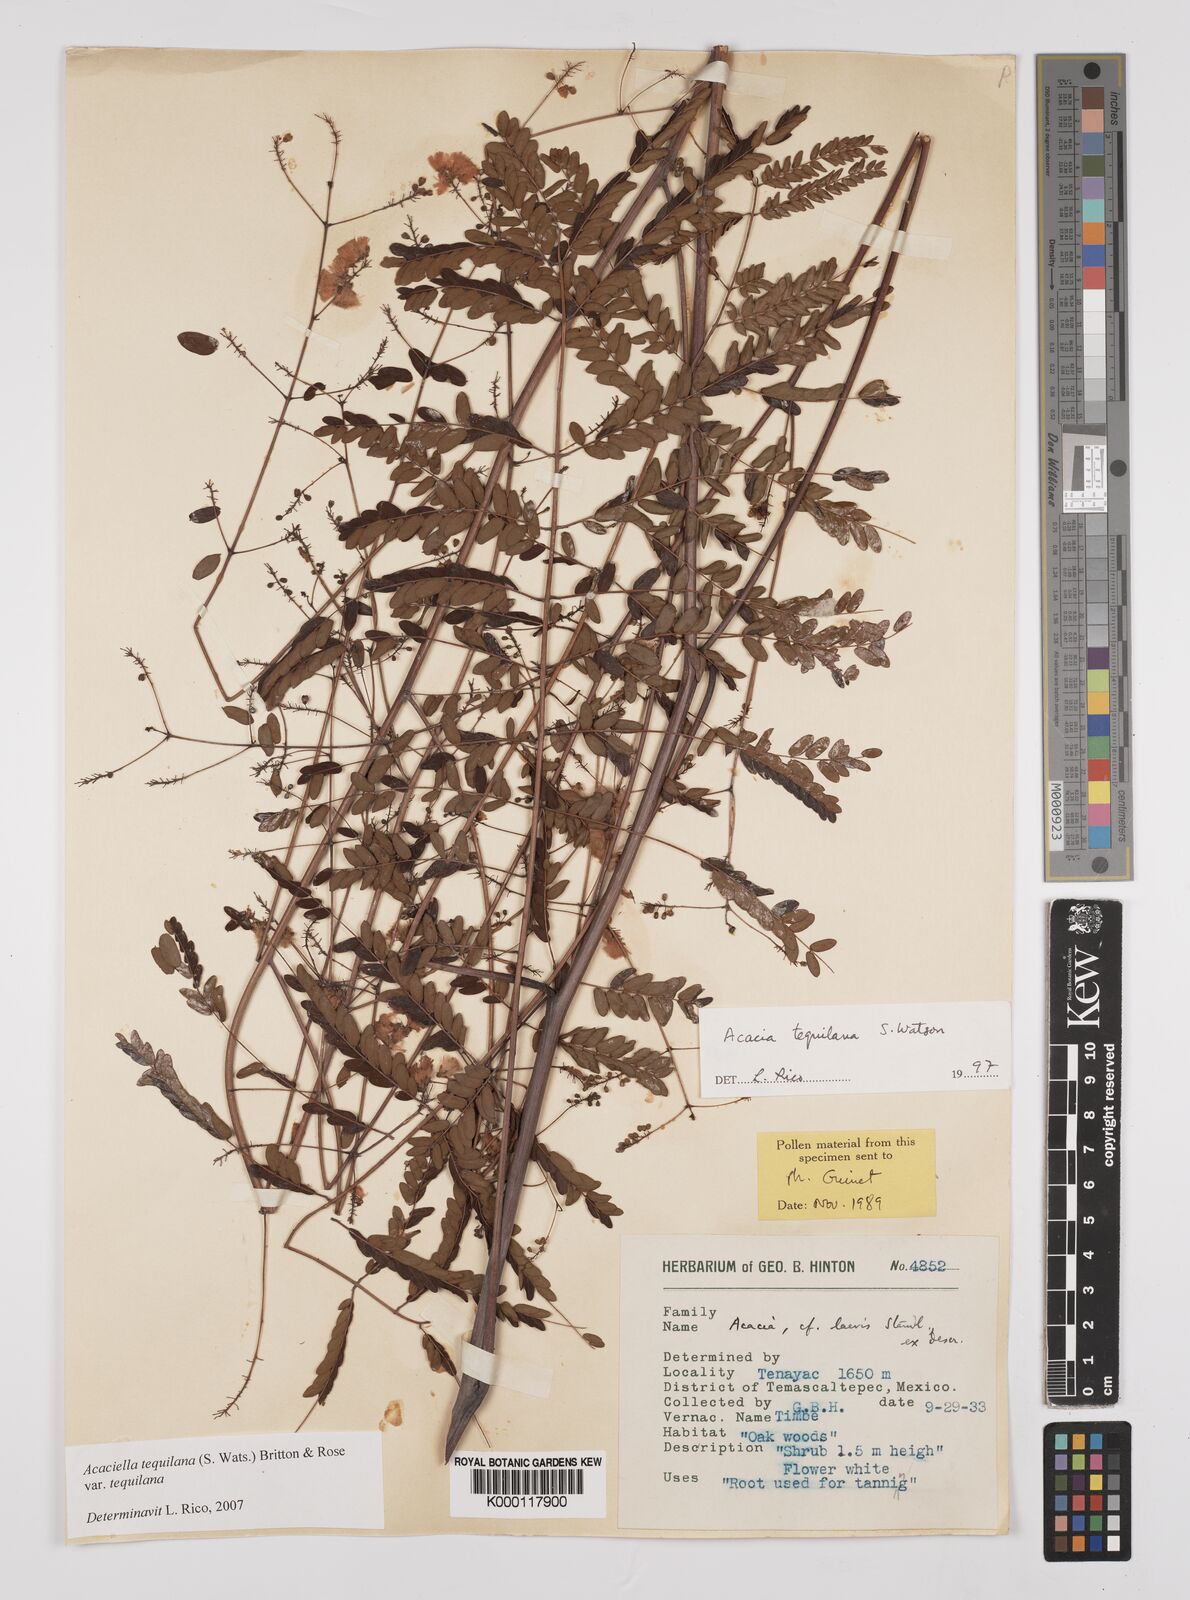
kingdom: Plantae
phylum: Tracheophyta
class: Magnoliopsida
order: Fabales
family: Fabaceae
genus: Acaciella
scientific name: Acaciella tequilana
